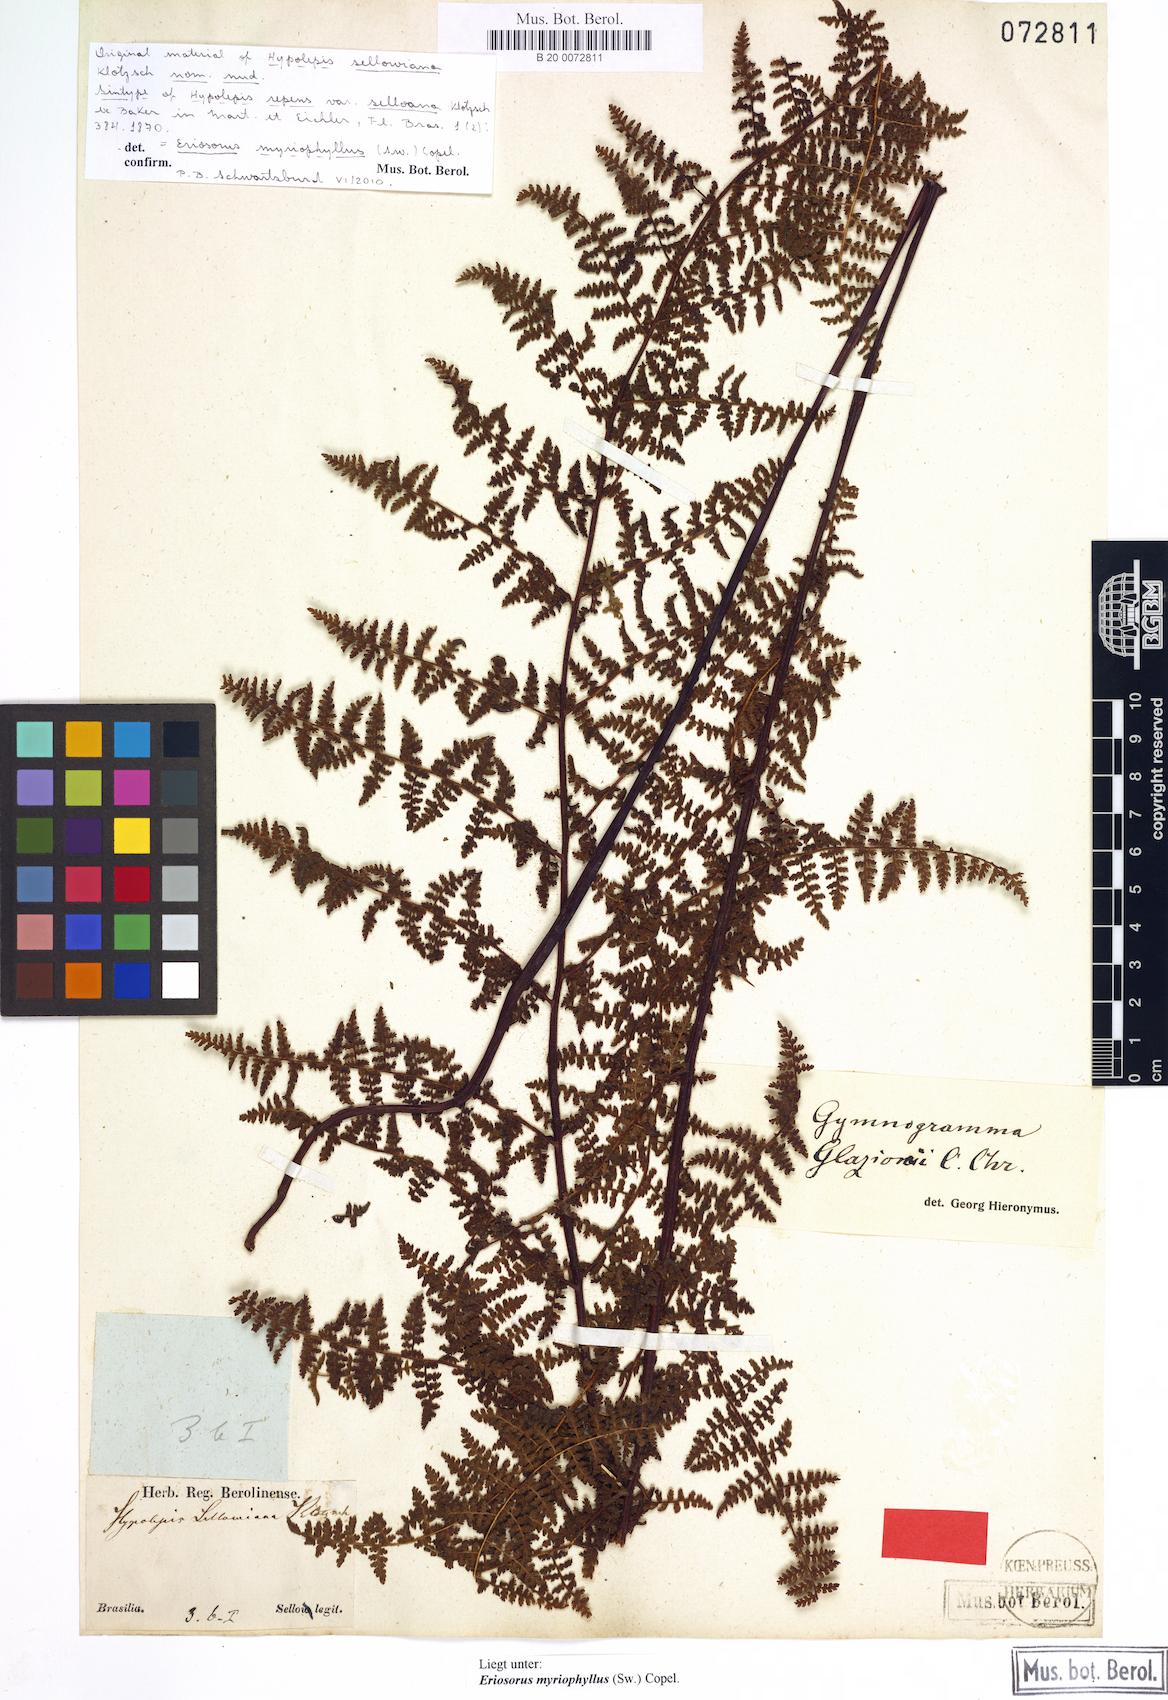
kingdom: Plantae
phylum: Tracheophyta
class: Polypodiopsida
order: Polypodiales
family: Pteridaceae
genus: Tryonia
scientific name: Tryonia myriophylla
